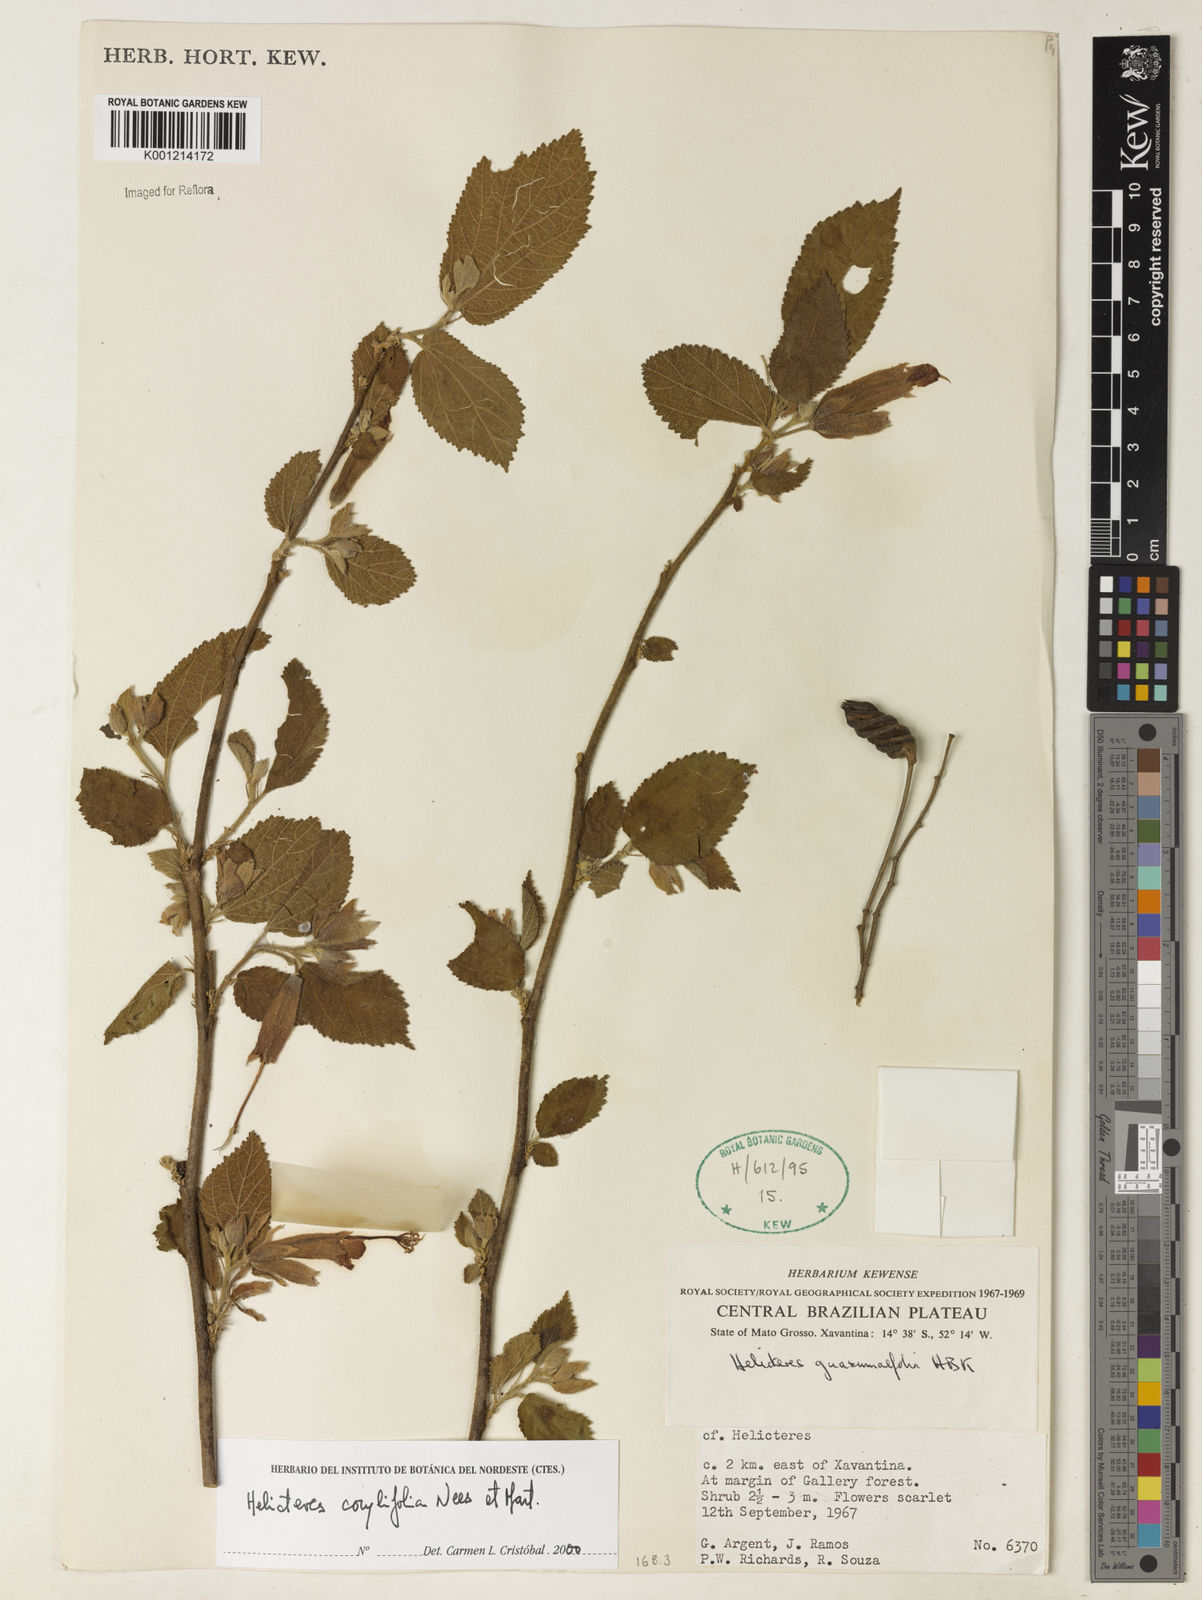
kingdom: Plantae
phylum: Tracheophyta
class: Magnoliopsida
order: Malvales
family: Malvaceae
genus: Helicteres
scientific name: Helicteres corylifolia
